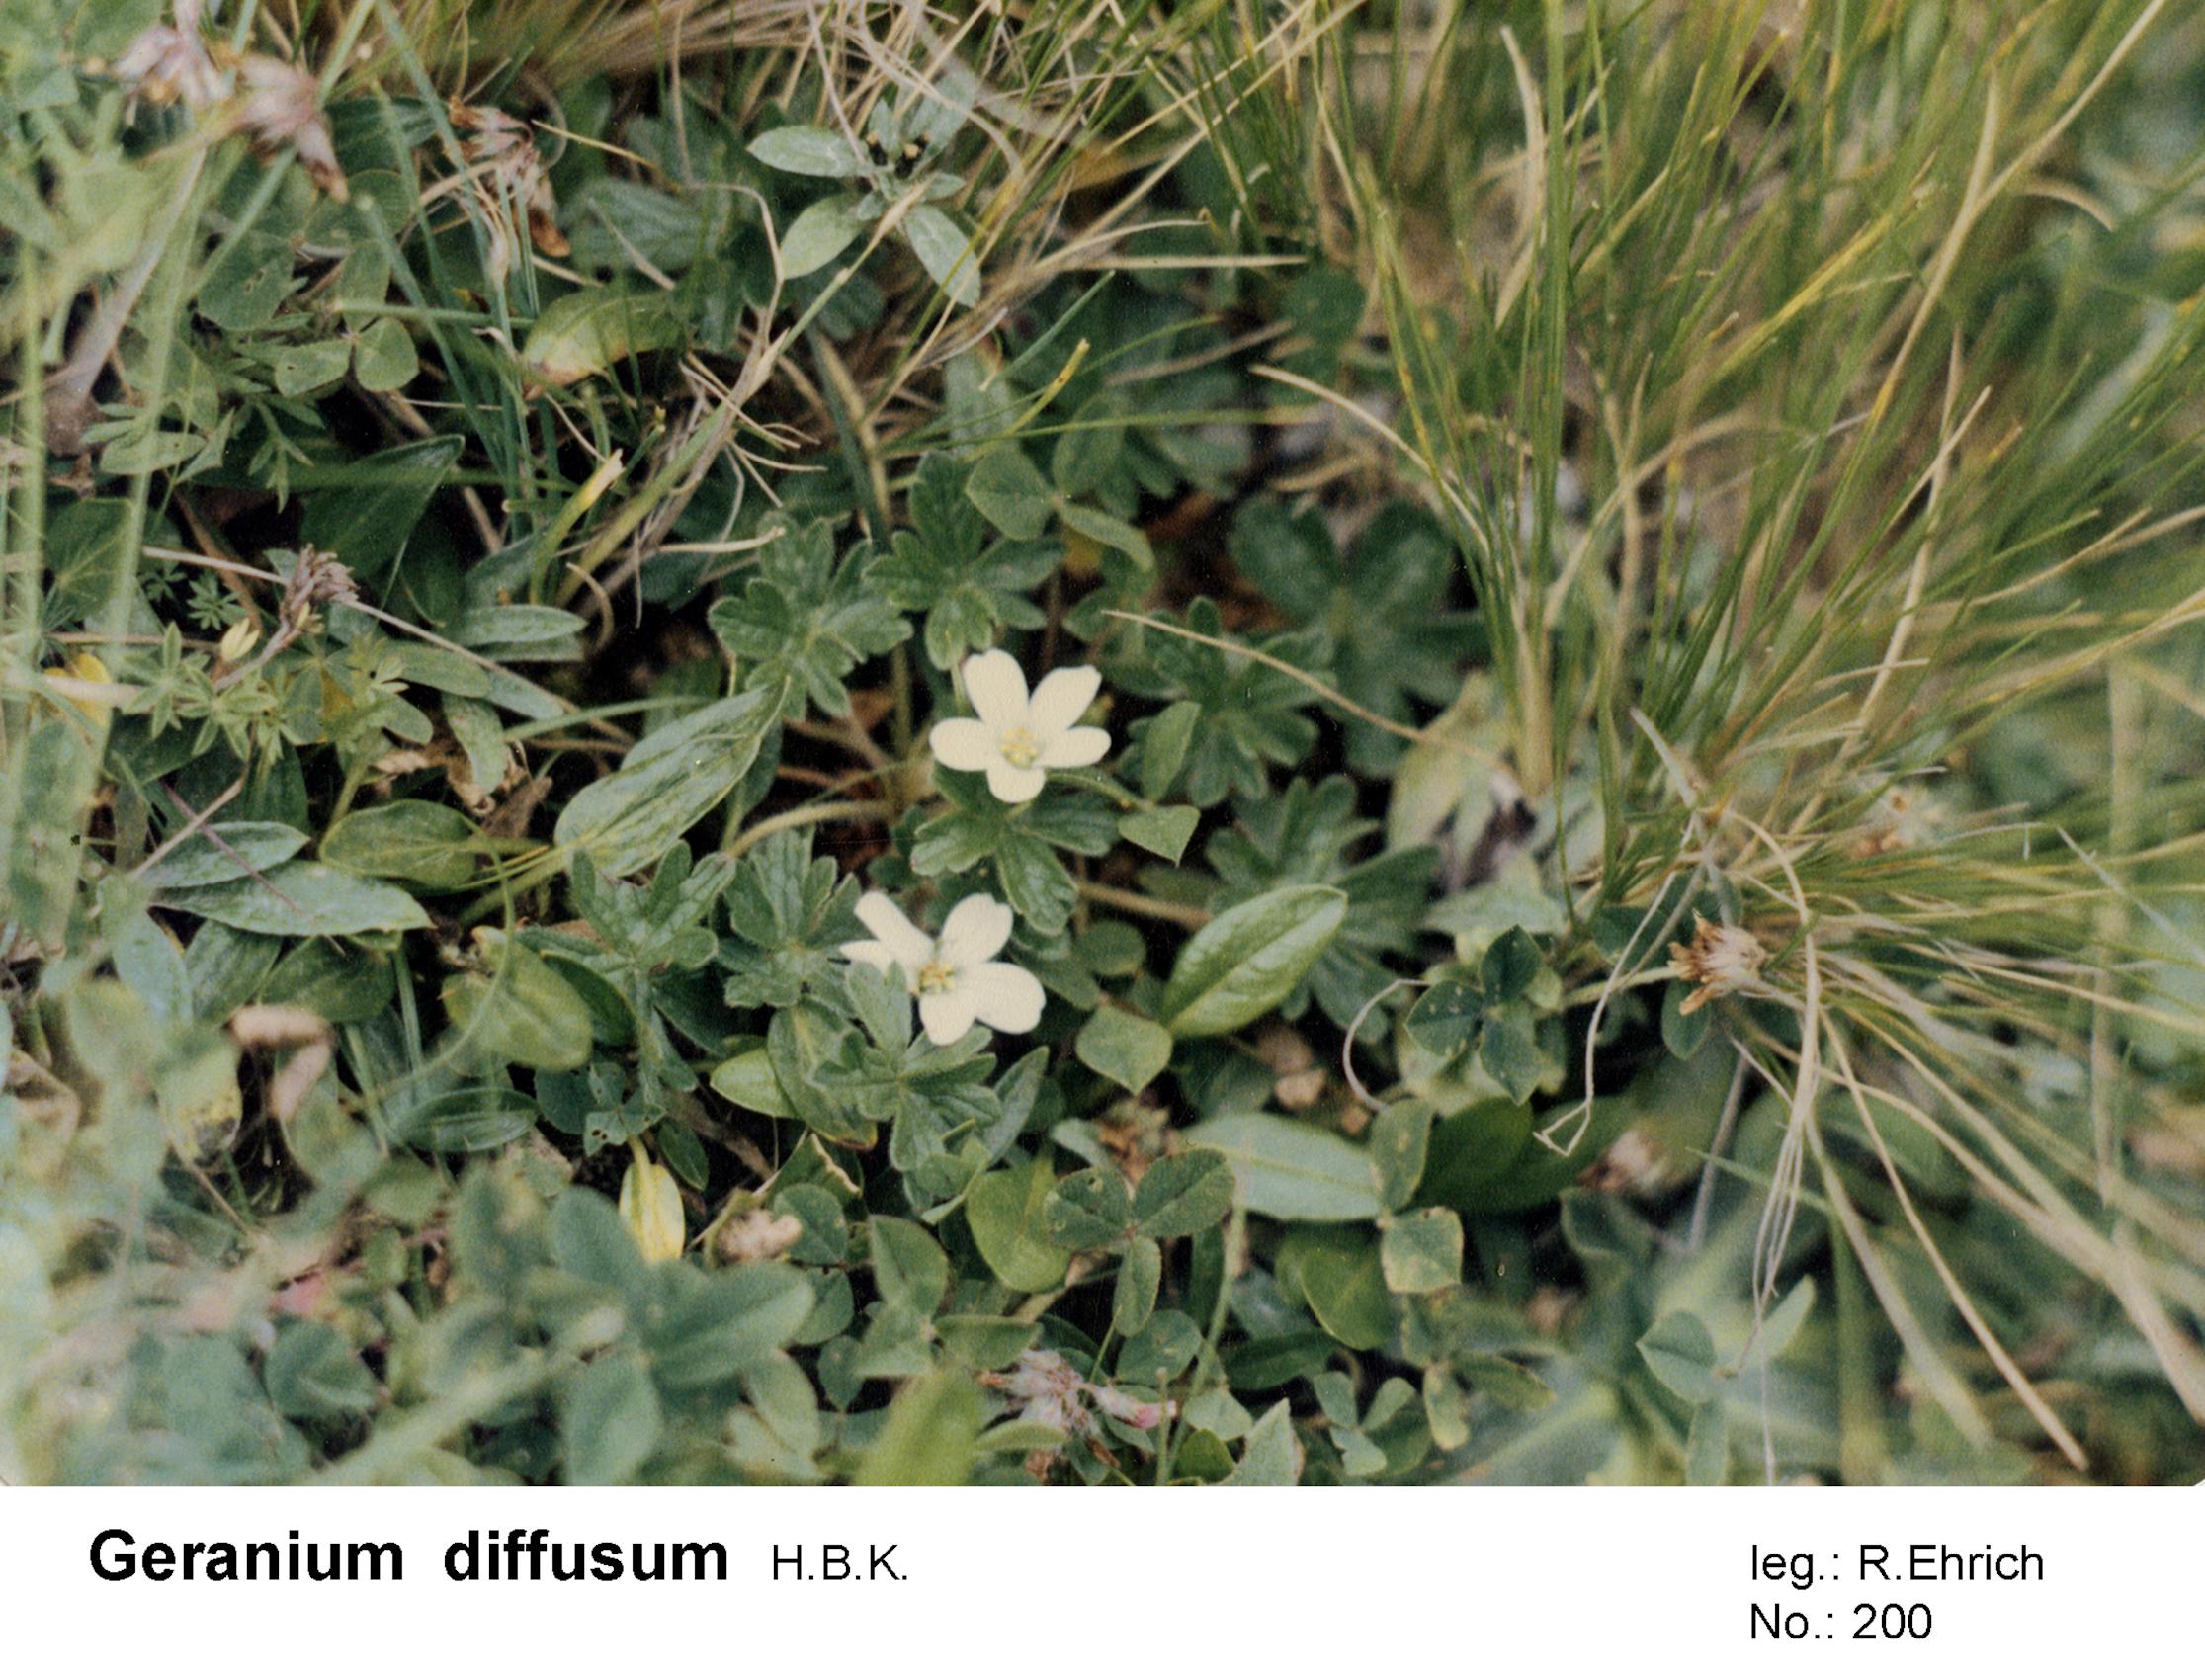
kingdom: Plantae
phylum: Tracheophyta
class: Magnoliopsida
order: Geraniales
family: Geraniaceae
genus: Geranium
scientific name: Geranium diffusum
